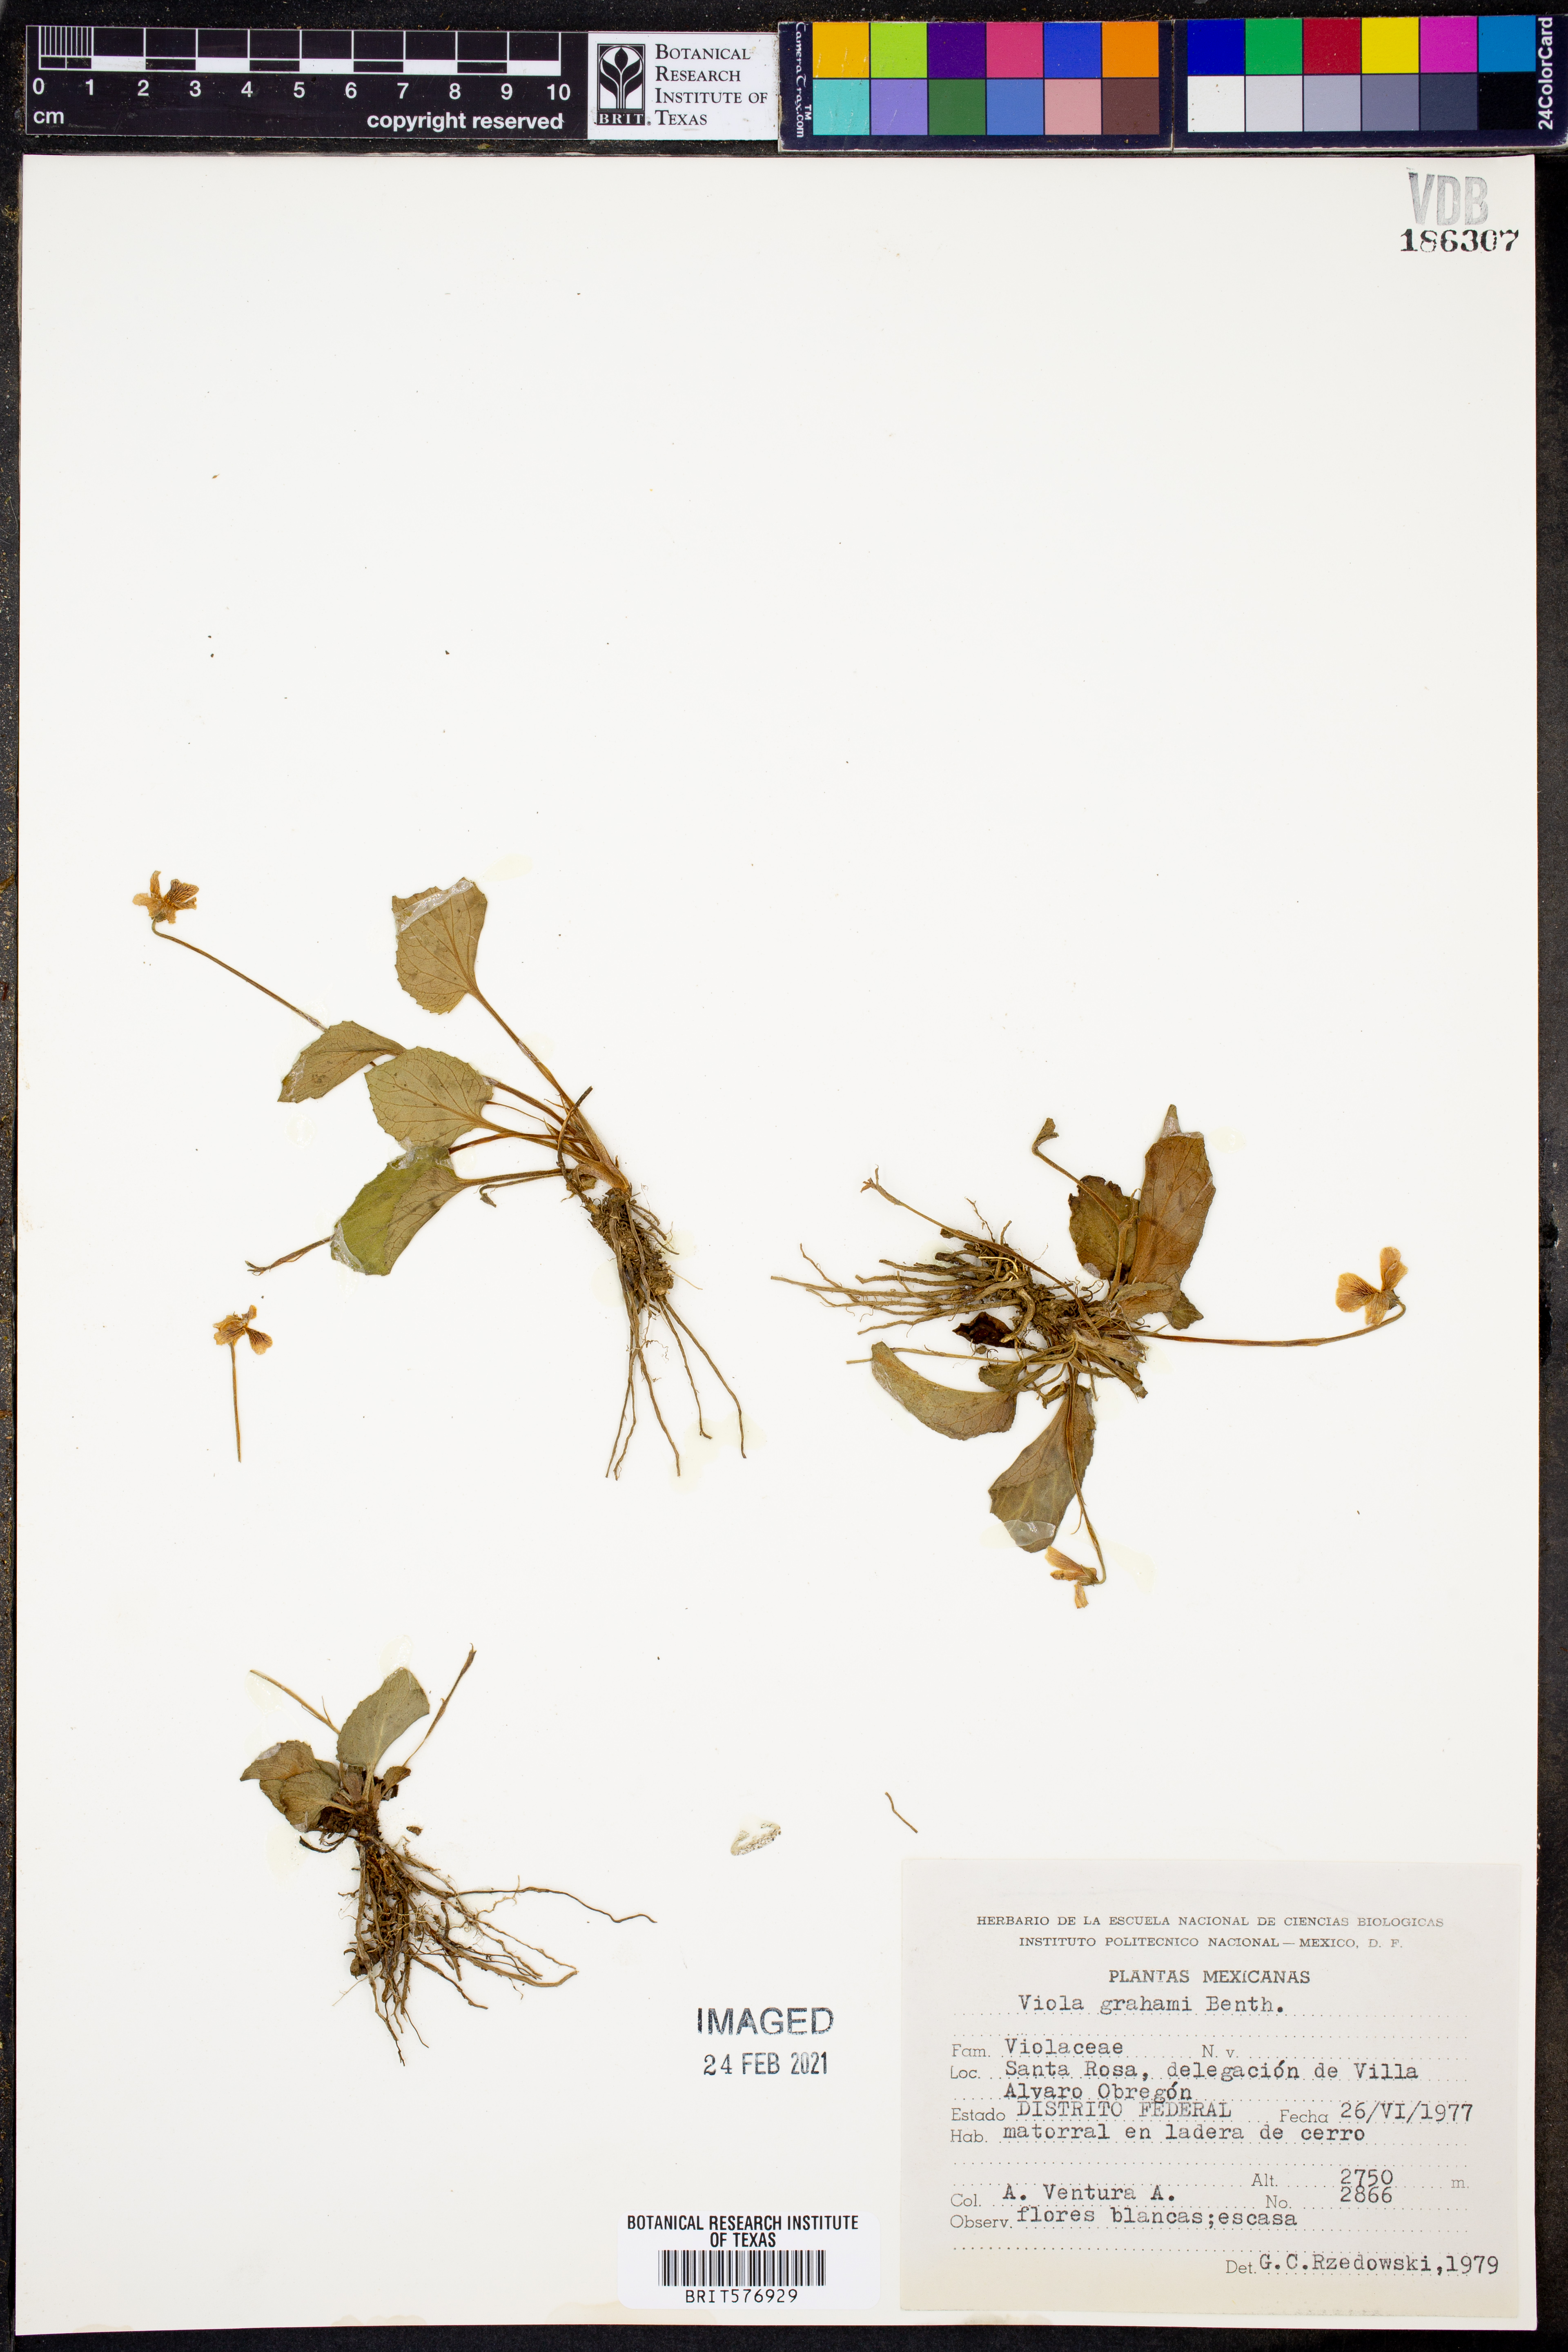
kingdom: Plantae
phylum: Tracheophyta
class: Magnoliopsida
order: Malpighiales
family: Violaceae
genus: Viola
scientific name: Viola grahamii
